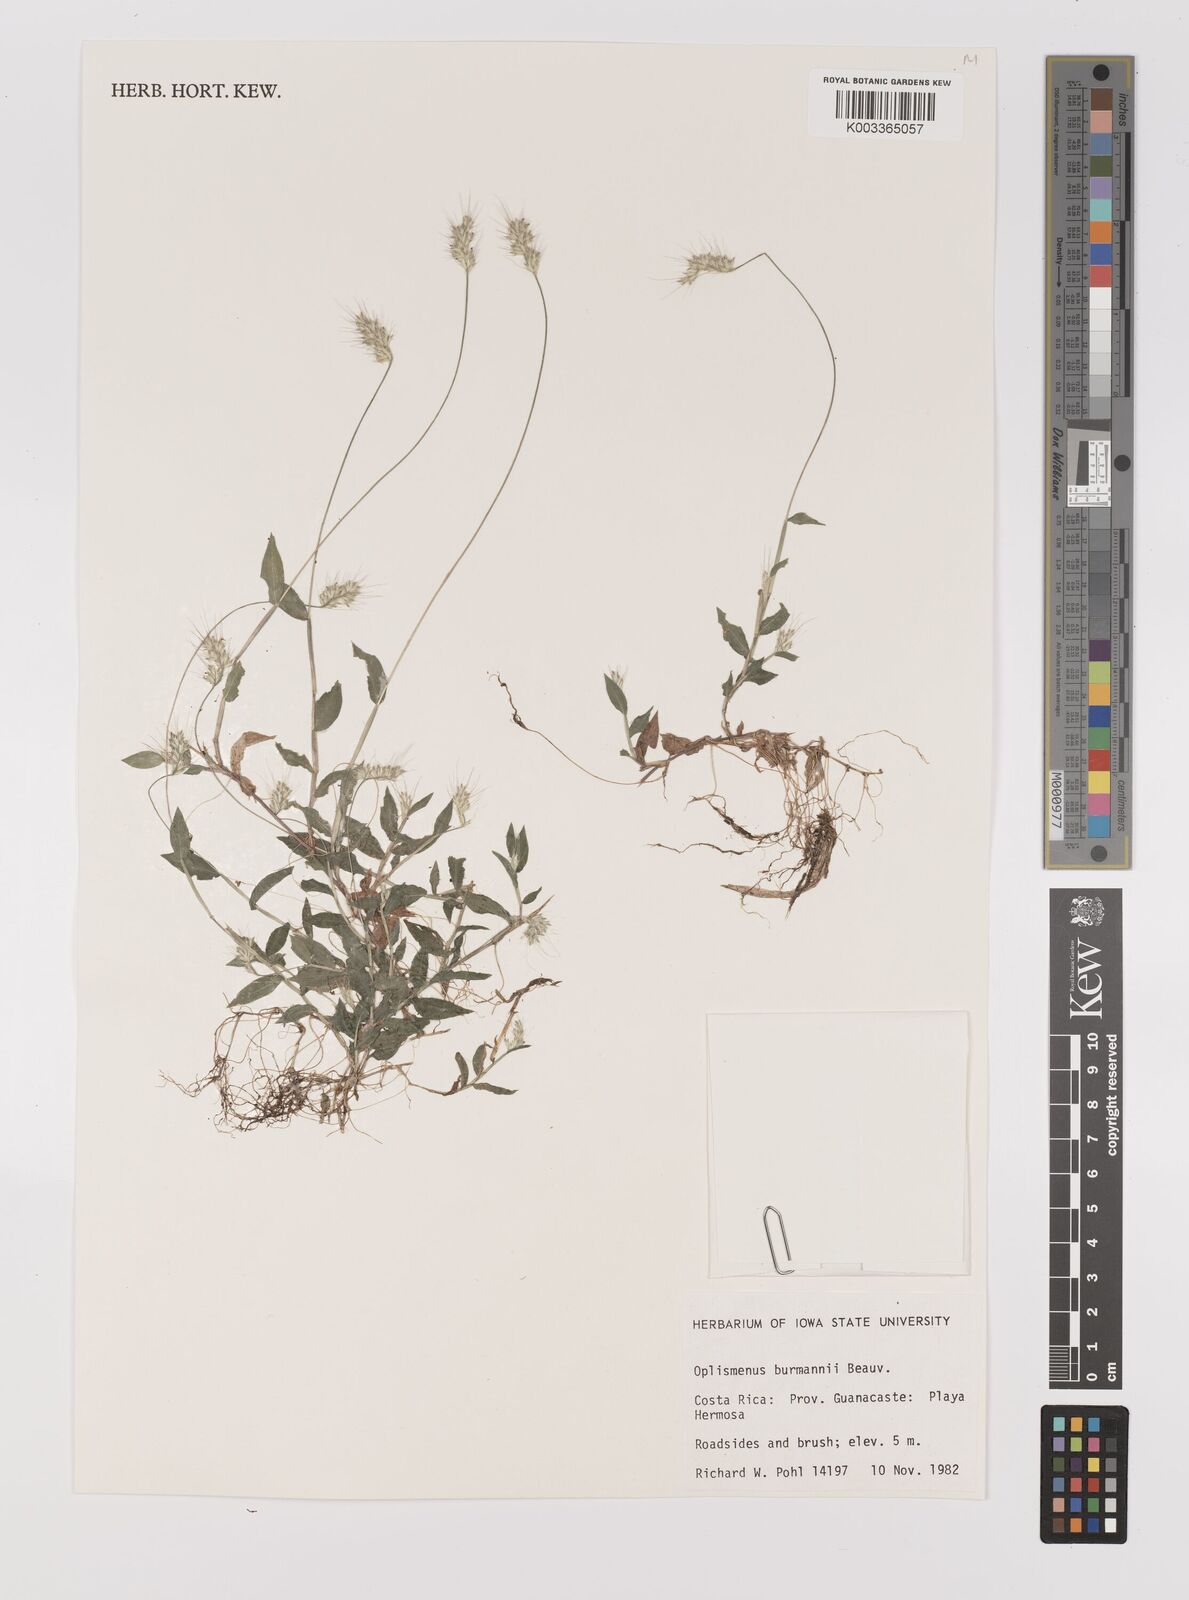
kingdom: Plantae
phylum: Tracheophyta
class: Liliopsida
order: Poales
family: Poaceae
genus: Oplismenus
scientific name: Oplismenus burmanni
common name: Burmann's basketgrass
